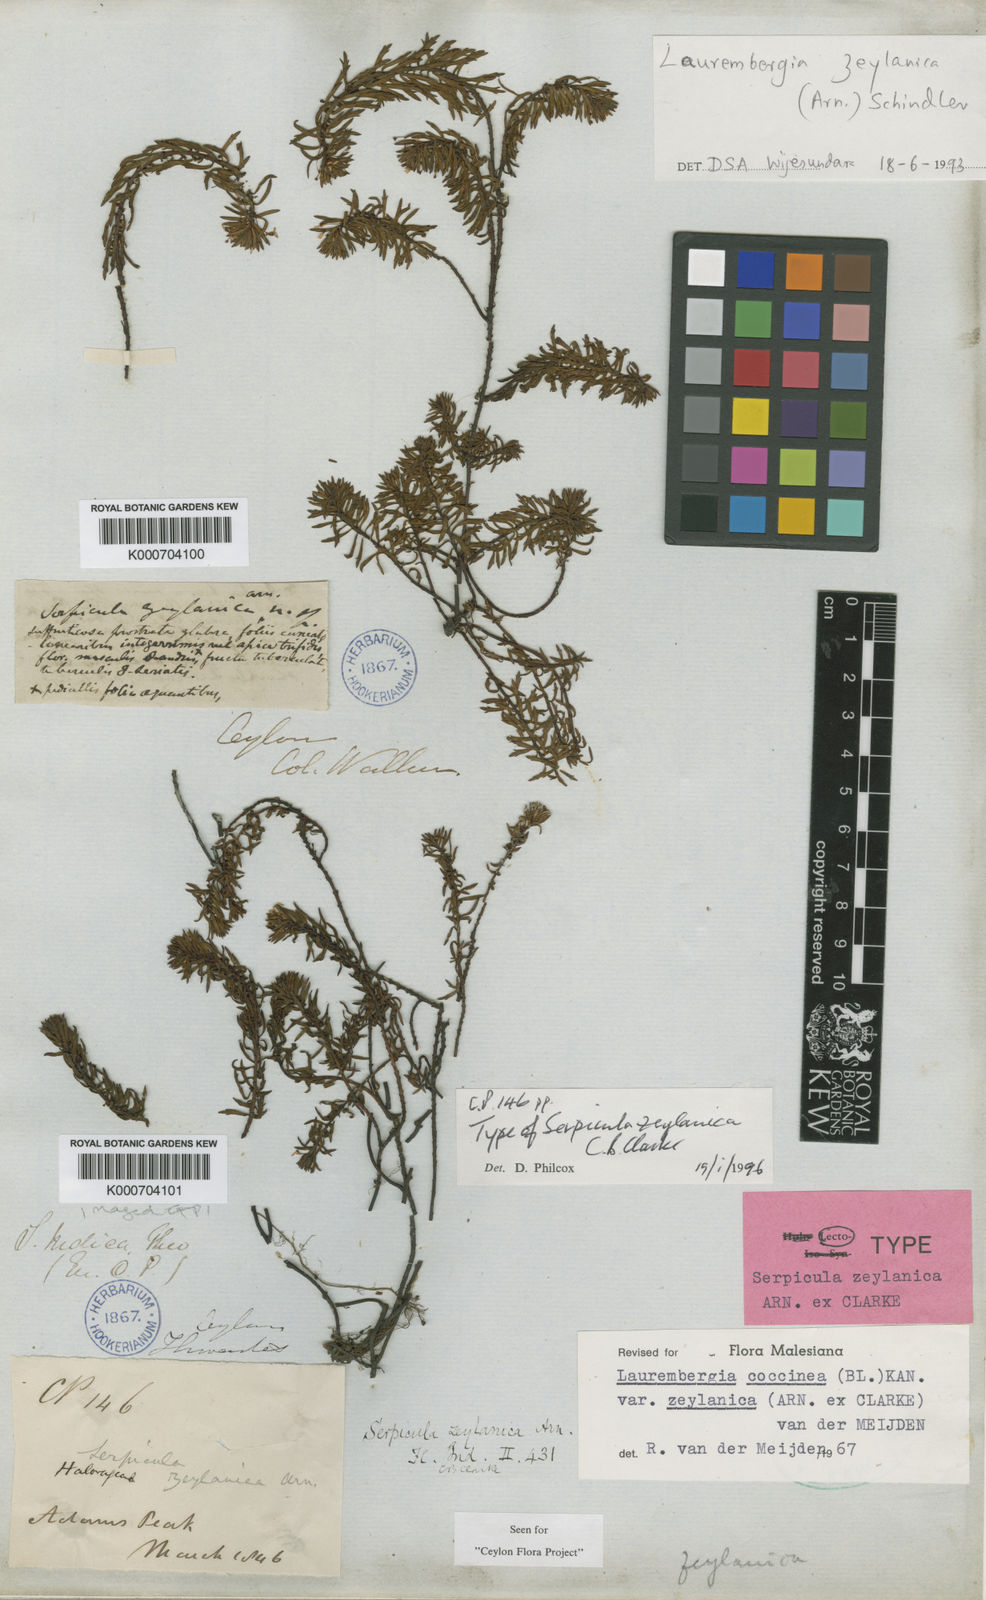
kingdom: Plantae
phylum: Tracheophyta
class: Magnoliopsida
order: Saxifragales
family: Haloragaceae
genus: Laurembergia
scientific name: Laurembergia coccinea
